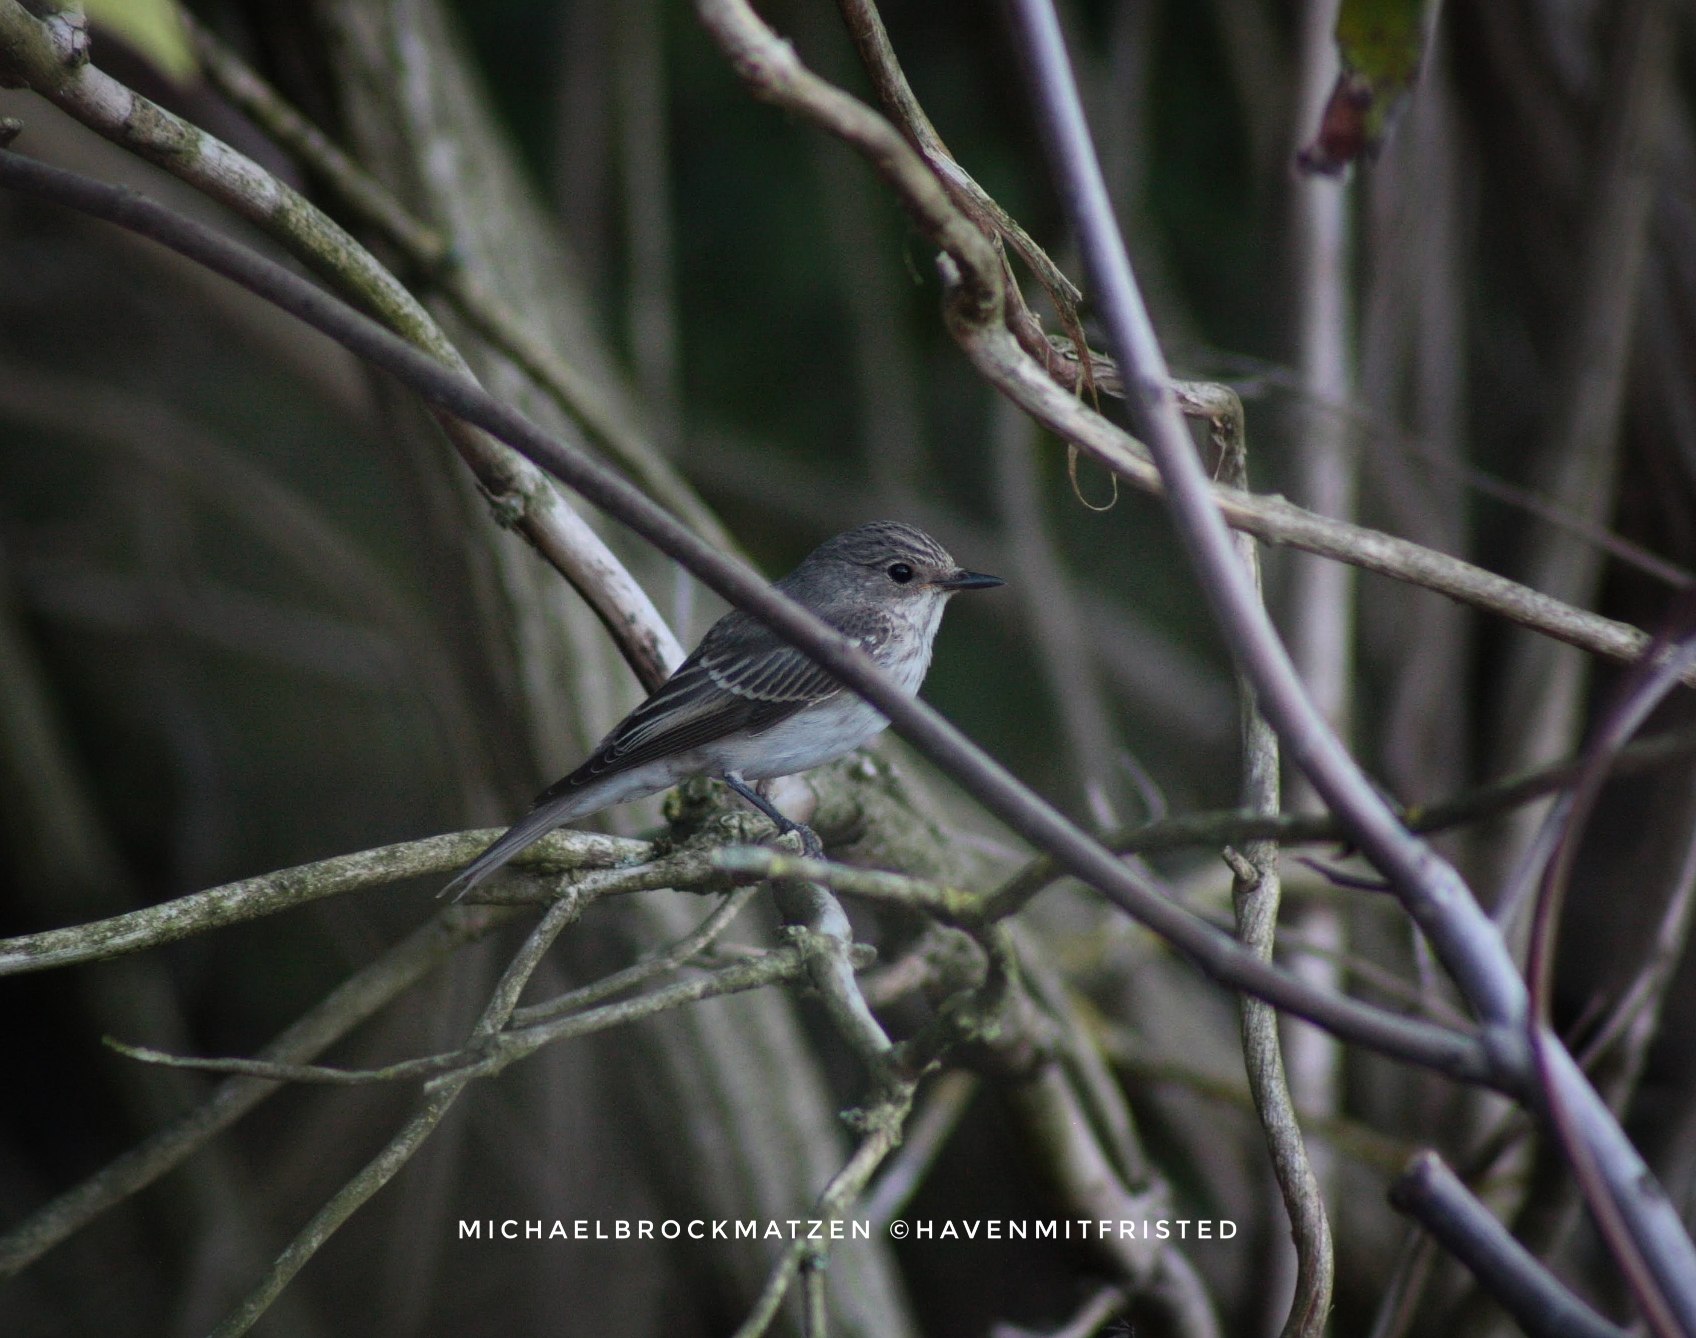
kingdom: Animalia
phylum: Chordata
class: Aves
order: Passeriformes
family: Muscicapidae
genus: Muscicapa
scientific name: Muscicapa striata
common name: Grå fluesnapper
